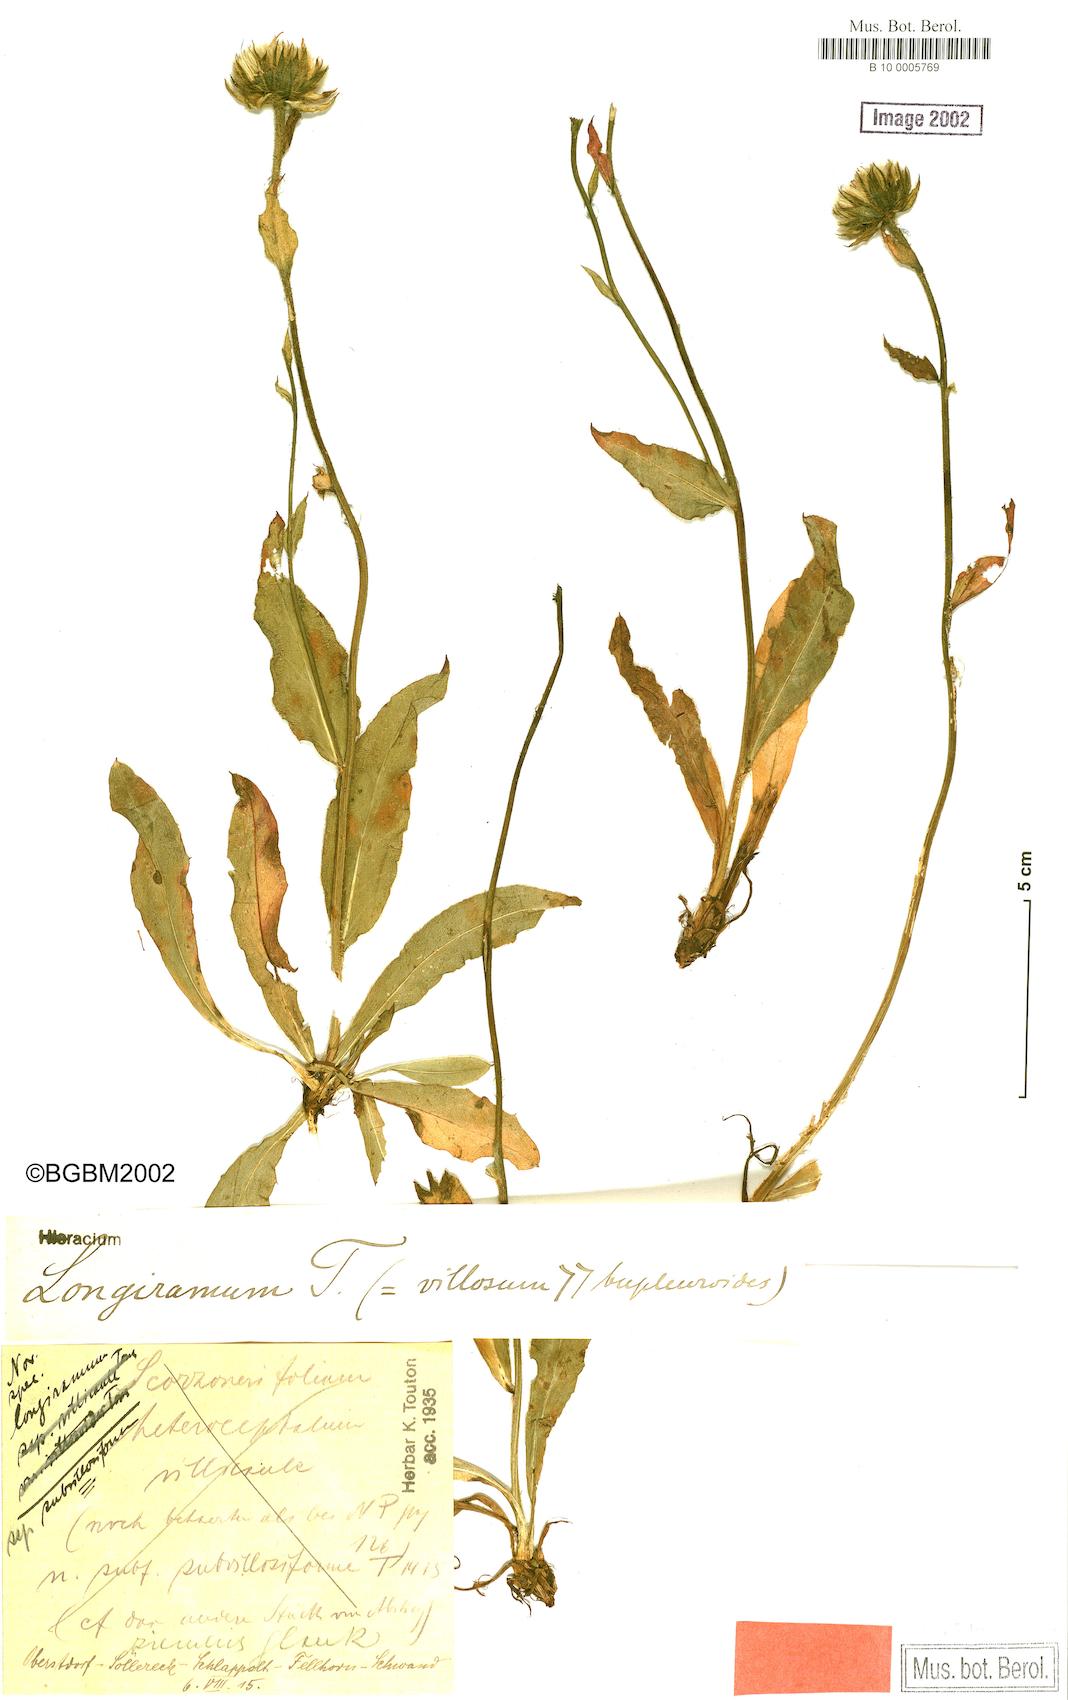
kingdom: Plantae
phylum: Tracheophyta
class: Magnoliopsida
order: Asterales
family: Asteraceae
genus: Hieracium
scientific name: Hieracium scorzonerifolium
